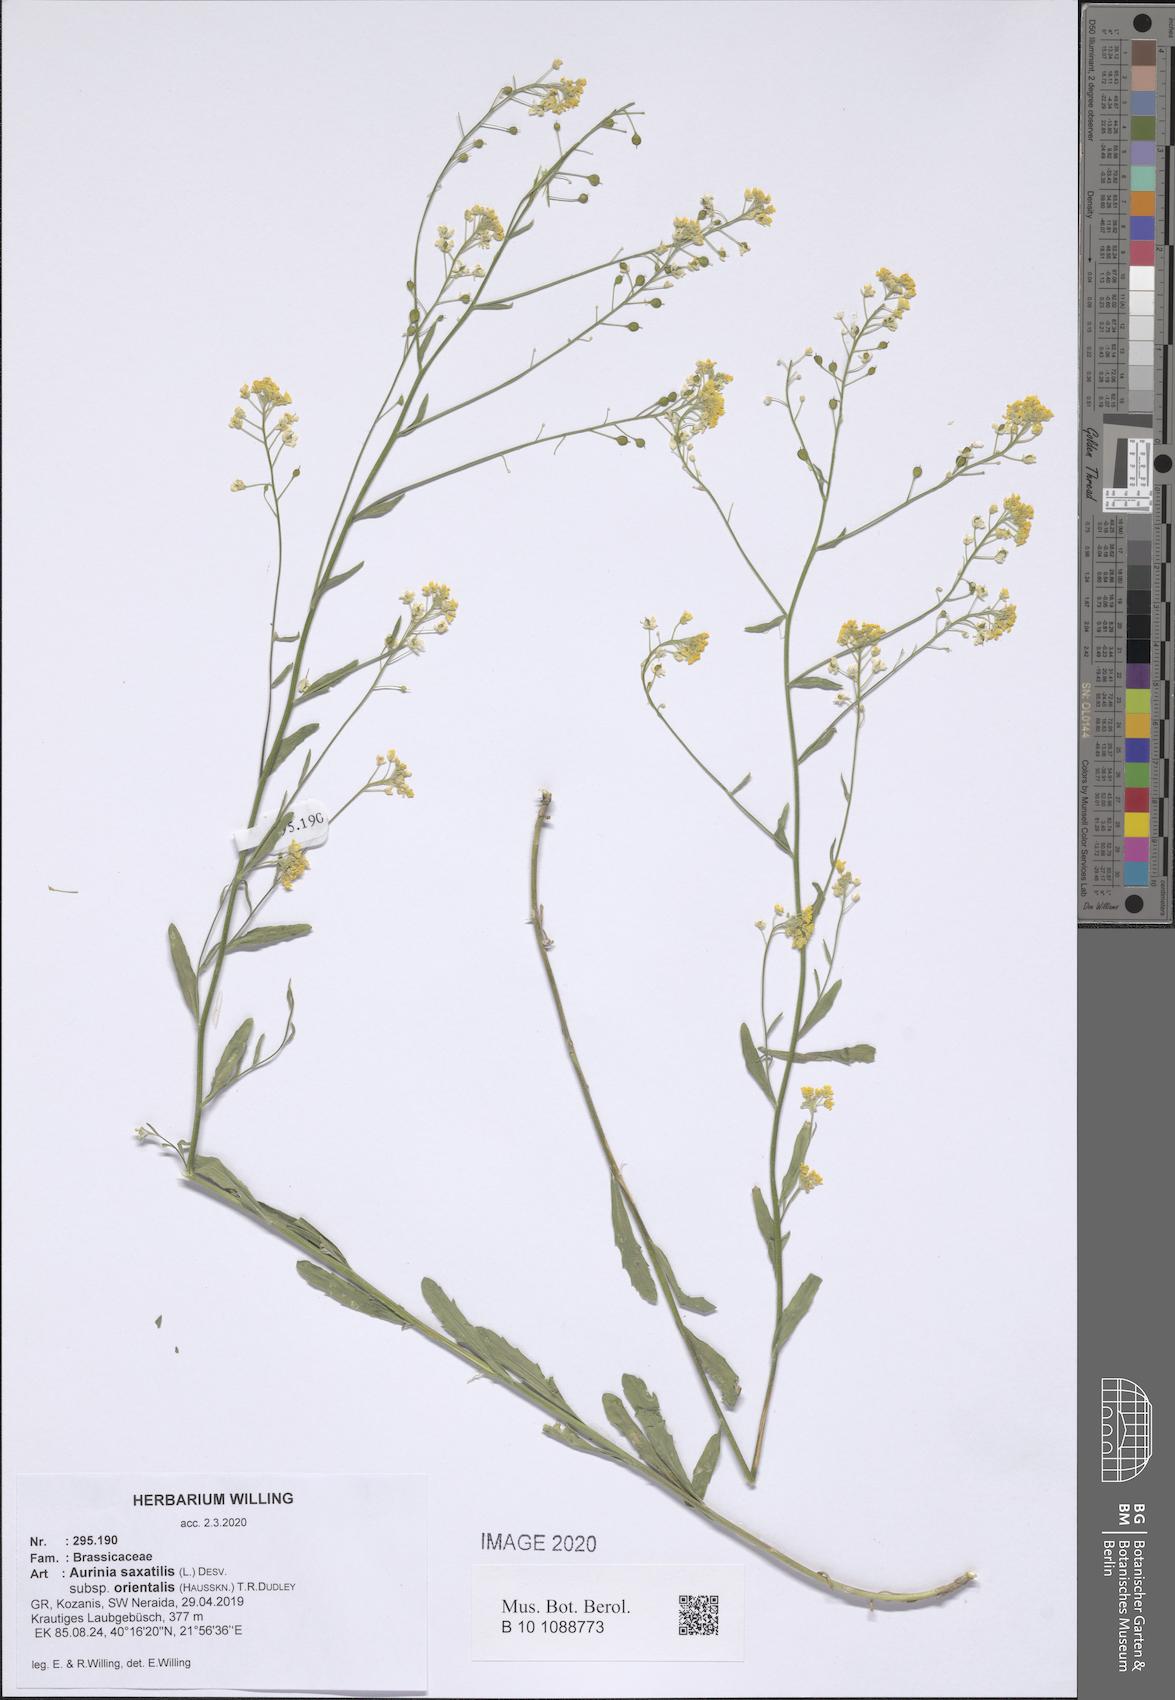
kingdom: Plantae
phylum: Tracheophyta
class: Magnoliopsida
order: Brassicales
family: Brassicaceae
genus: Aurinia
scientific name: Aurinia saxatilis
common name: Golden-tuft alyssum
